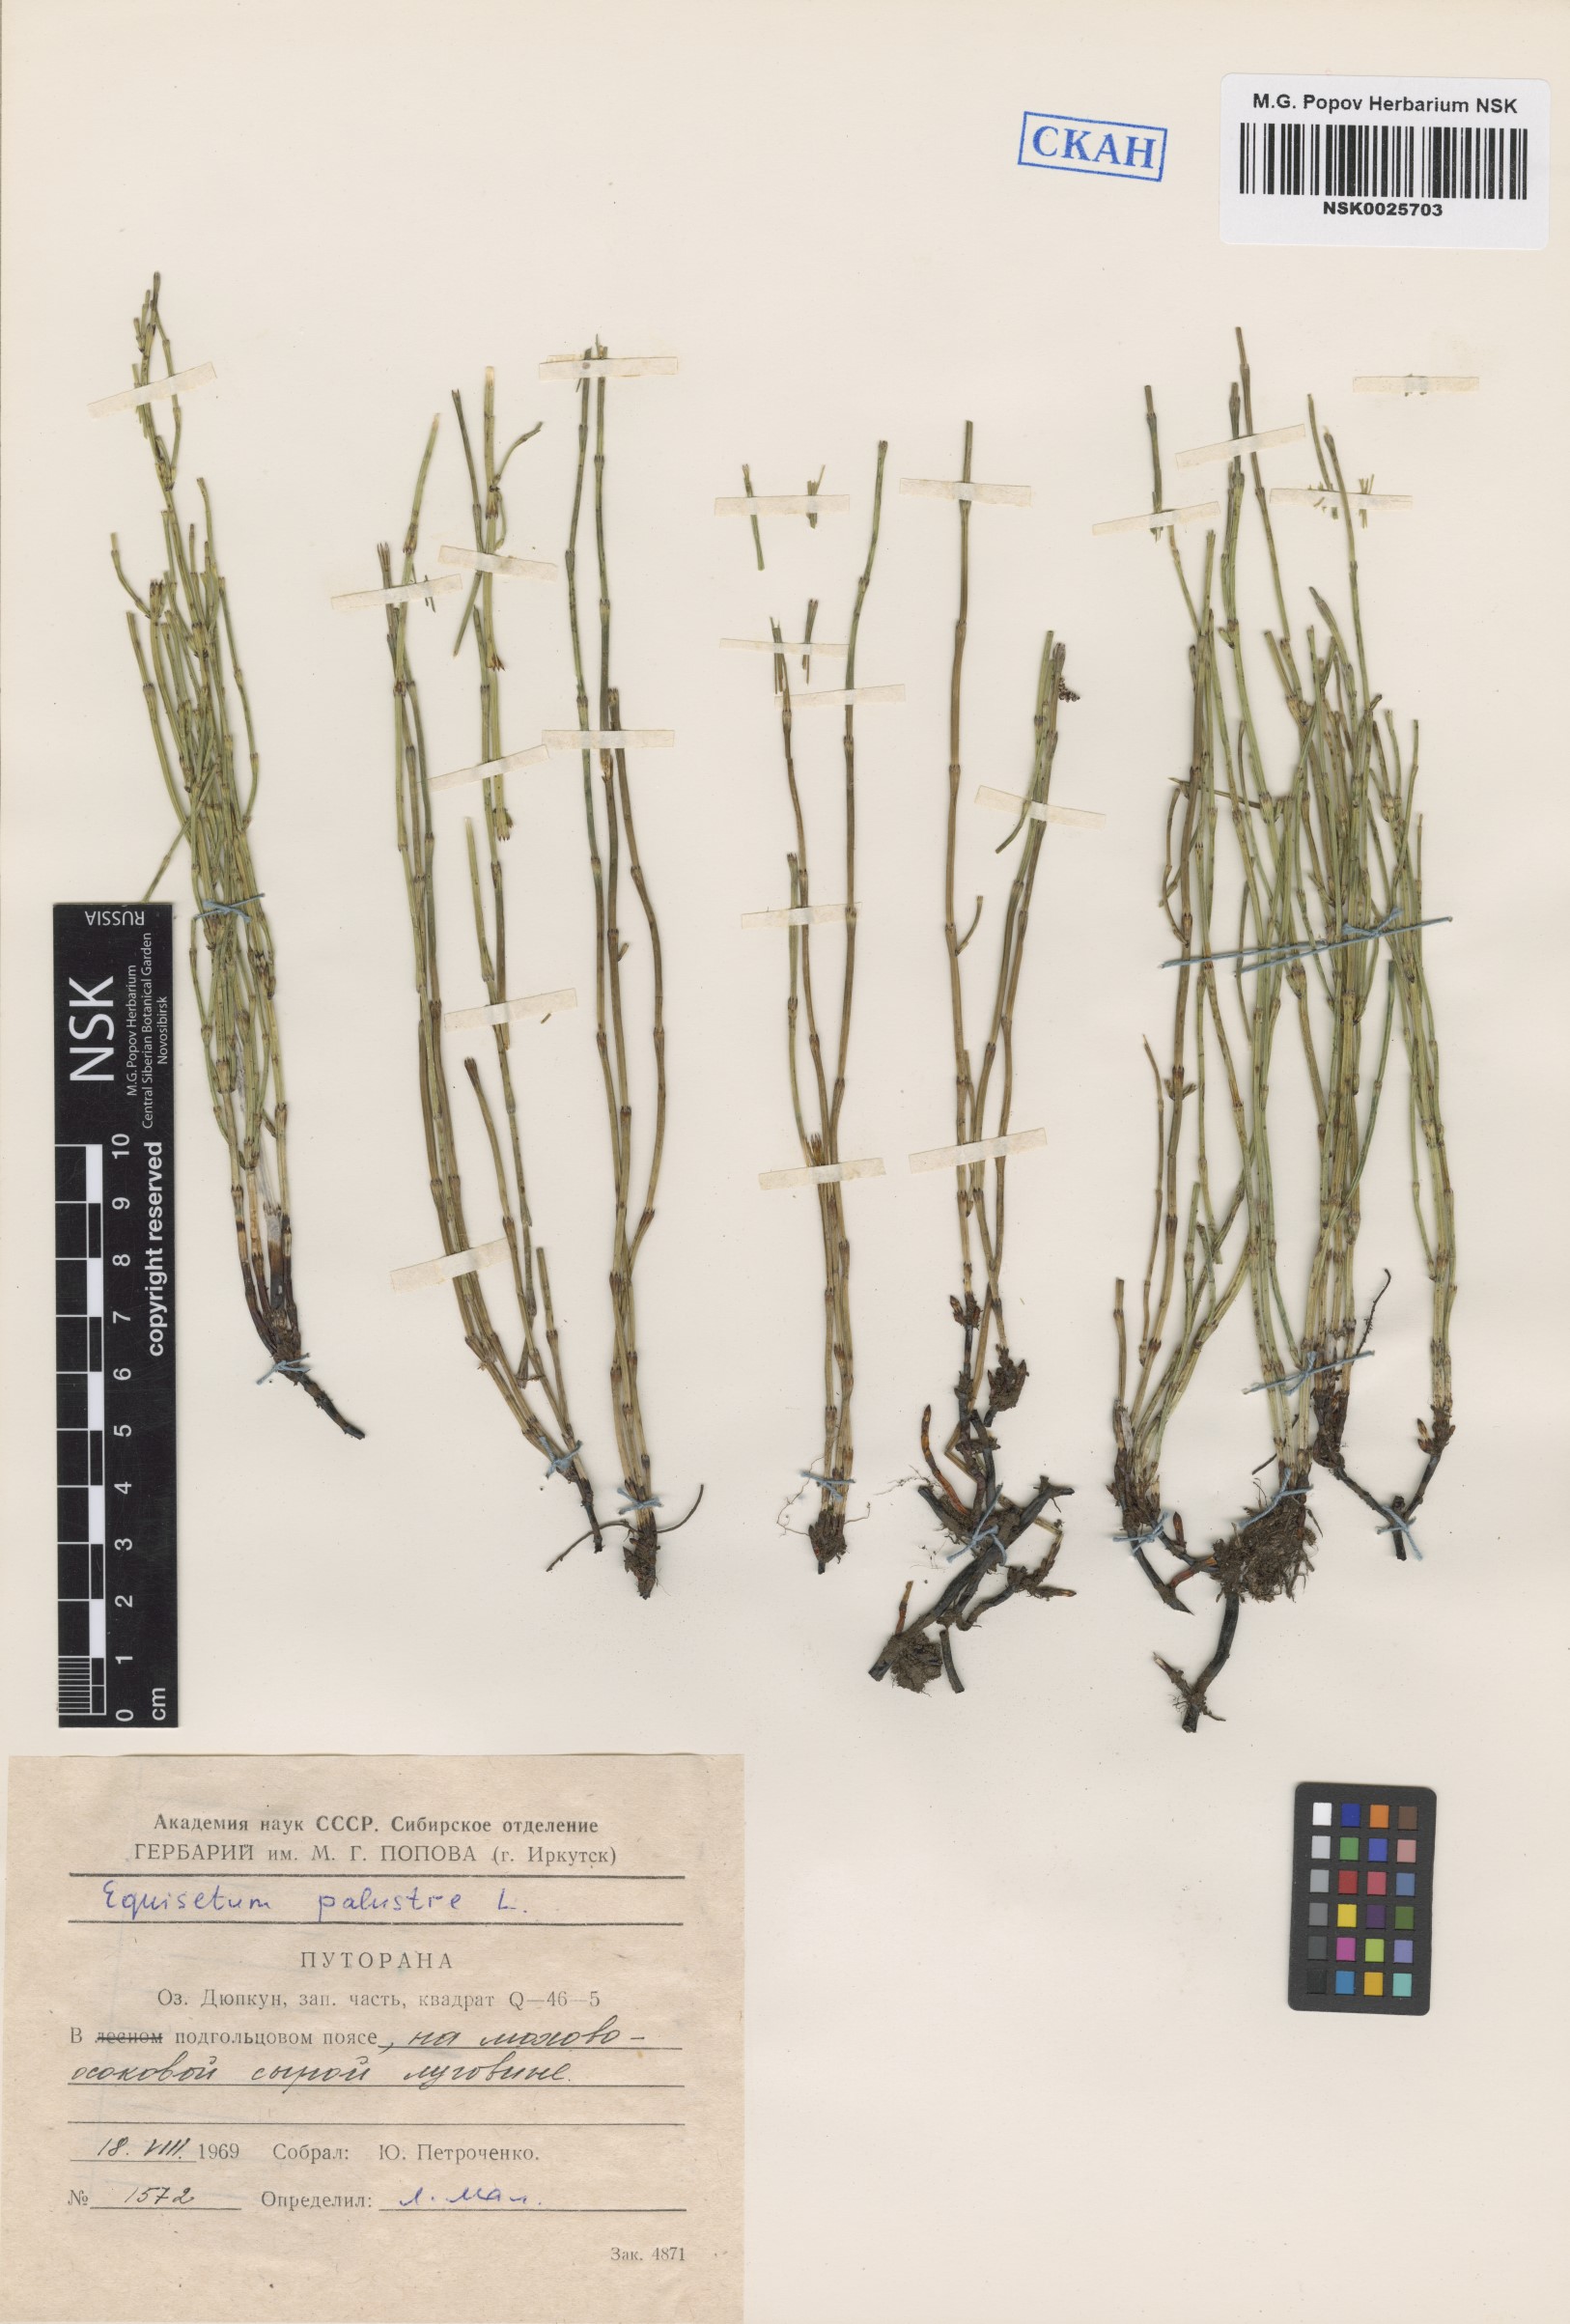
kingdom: Plantae
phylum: Tracheophyta
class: Polypodiopsida
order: Equisetales
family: Equisetaceae
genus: Equisetum
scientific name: Equisetum palustre
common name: Marsh horsetail
